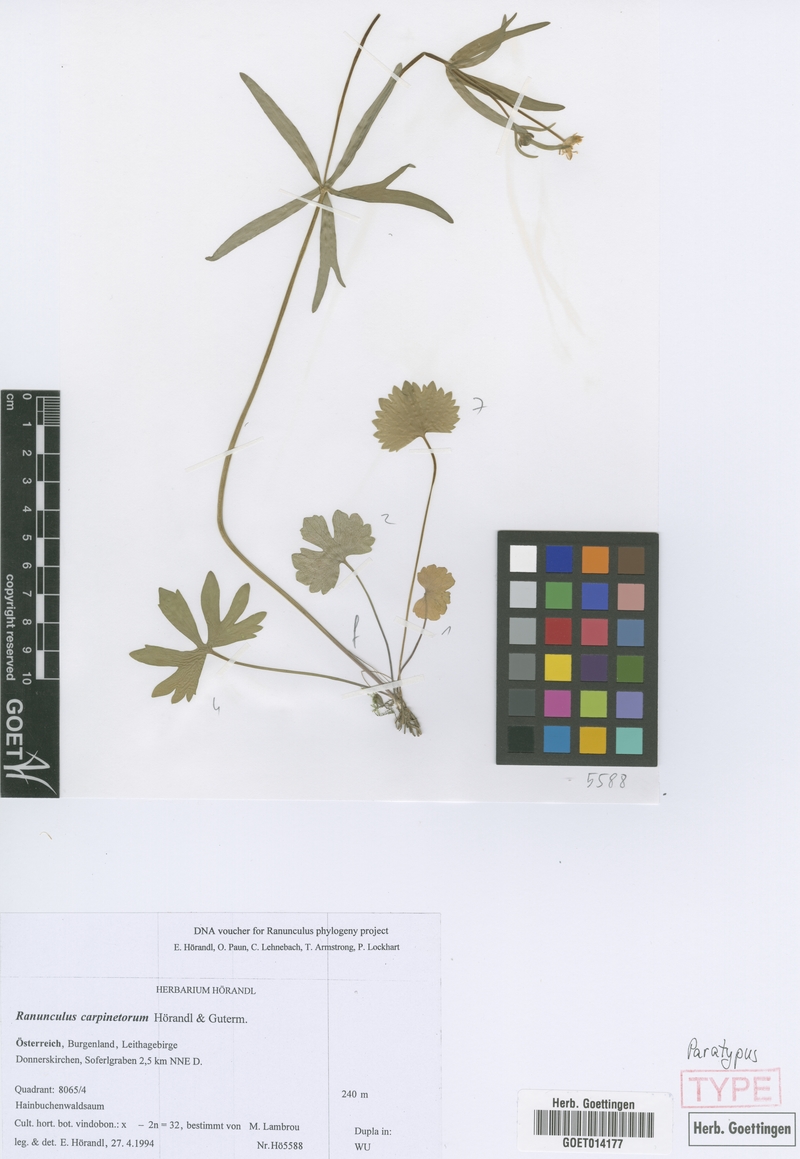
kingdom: Plantae
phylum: Tracheophyta
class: Magnoliopsida
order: Ranunculales
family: Ranunculaceae
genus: Ranunculus
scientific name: Ranunculus carpinetorum
